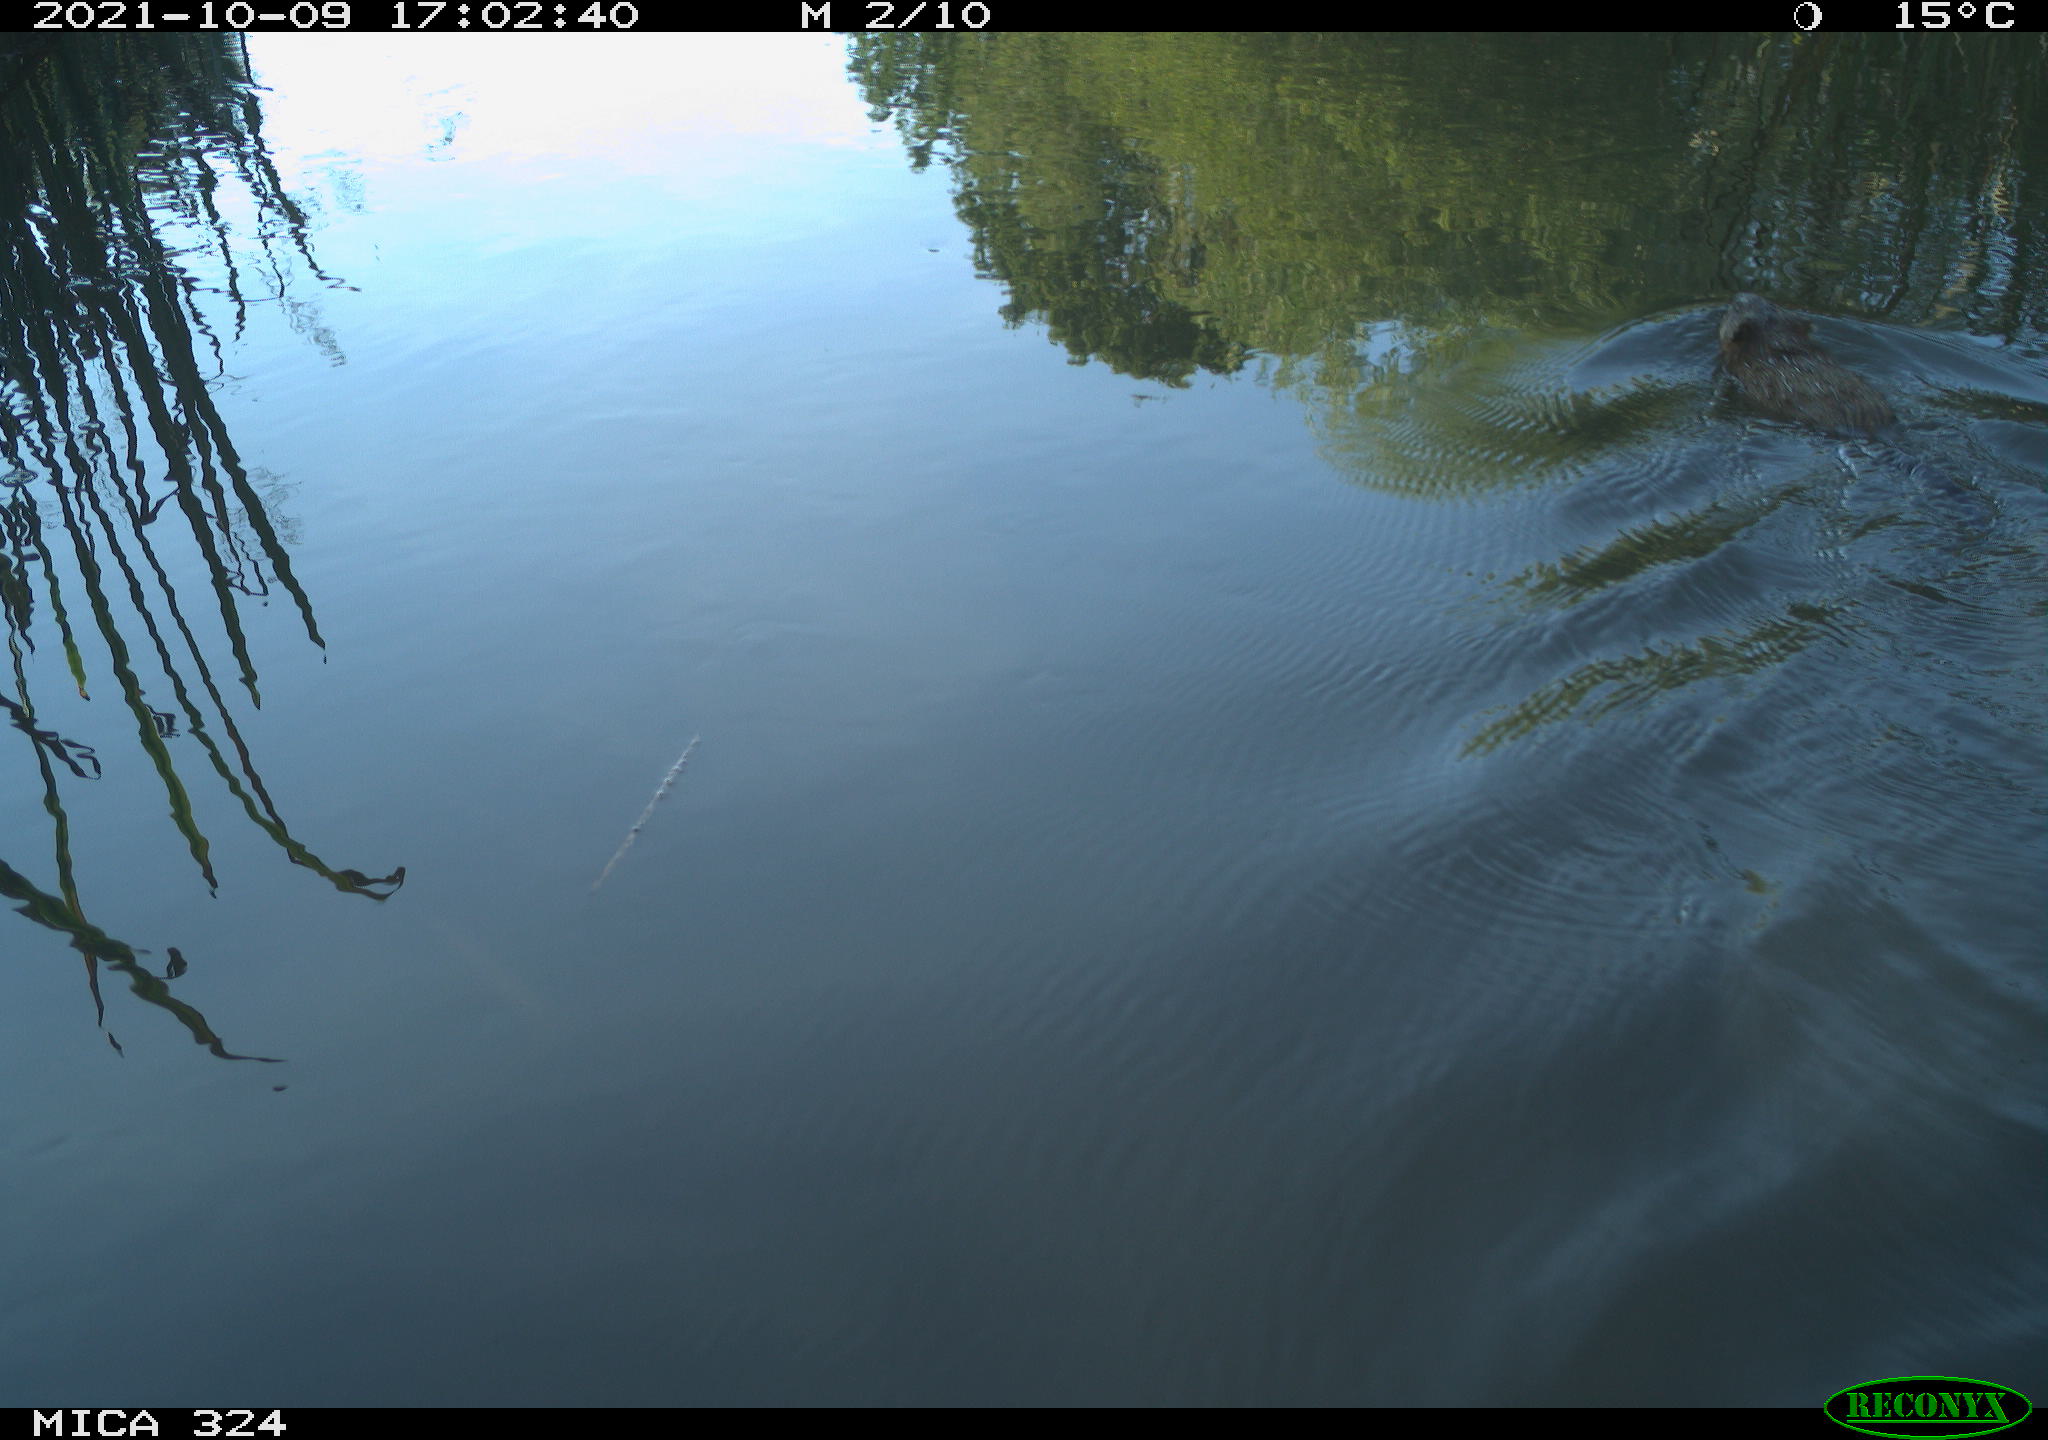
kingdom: Animalia
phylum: Chordata
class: Mammalia
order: Rodentia
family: Cricetidae
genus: Ondatra
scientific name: Ondatra zibethicus
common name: Muskrat
